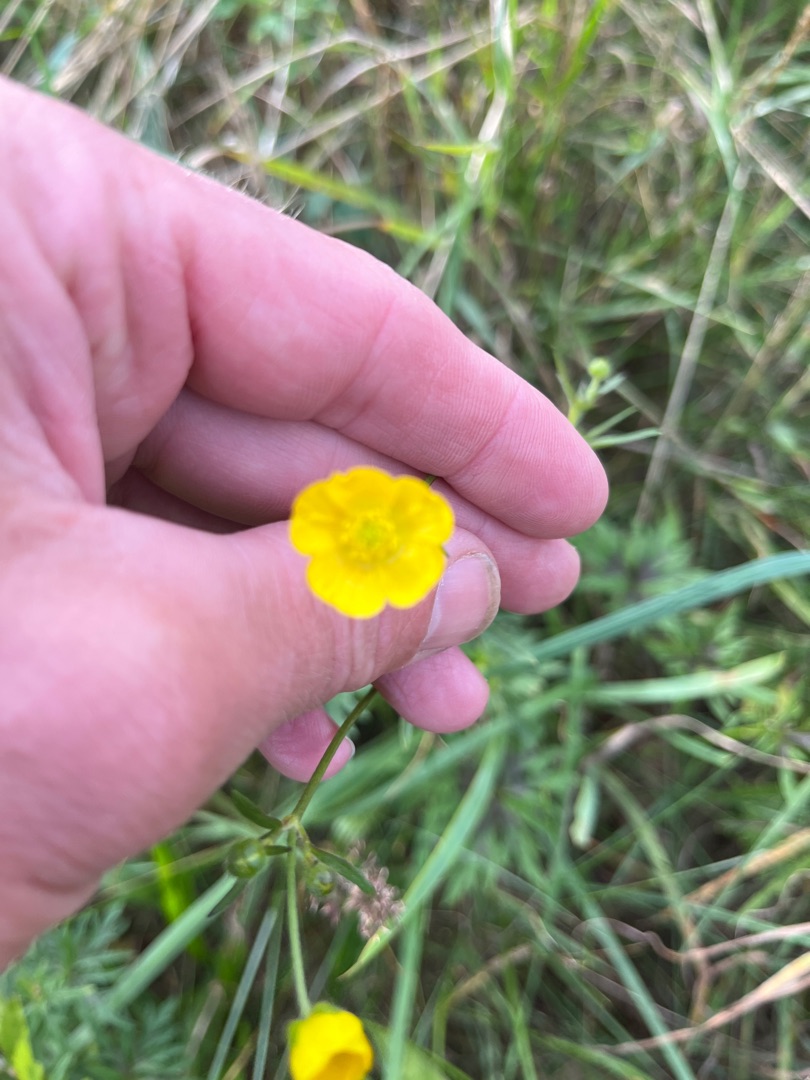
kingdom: Plantae
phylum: Tracheophyta
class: Magnoliopsida
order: Ranunculales
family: Ranunculaceae
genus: Ranunculus
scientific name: Ranunculus acris
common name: Bidende ranunkel
